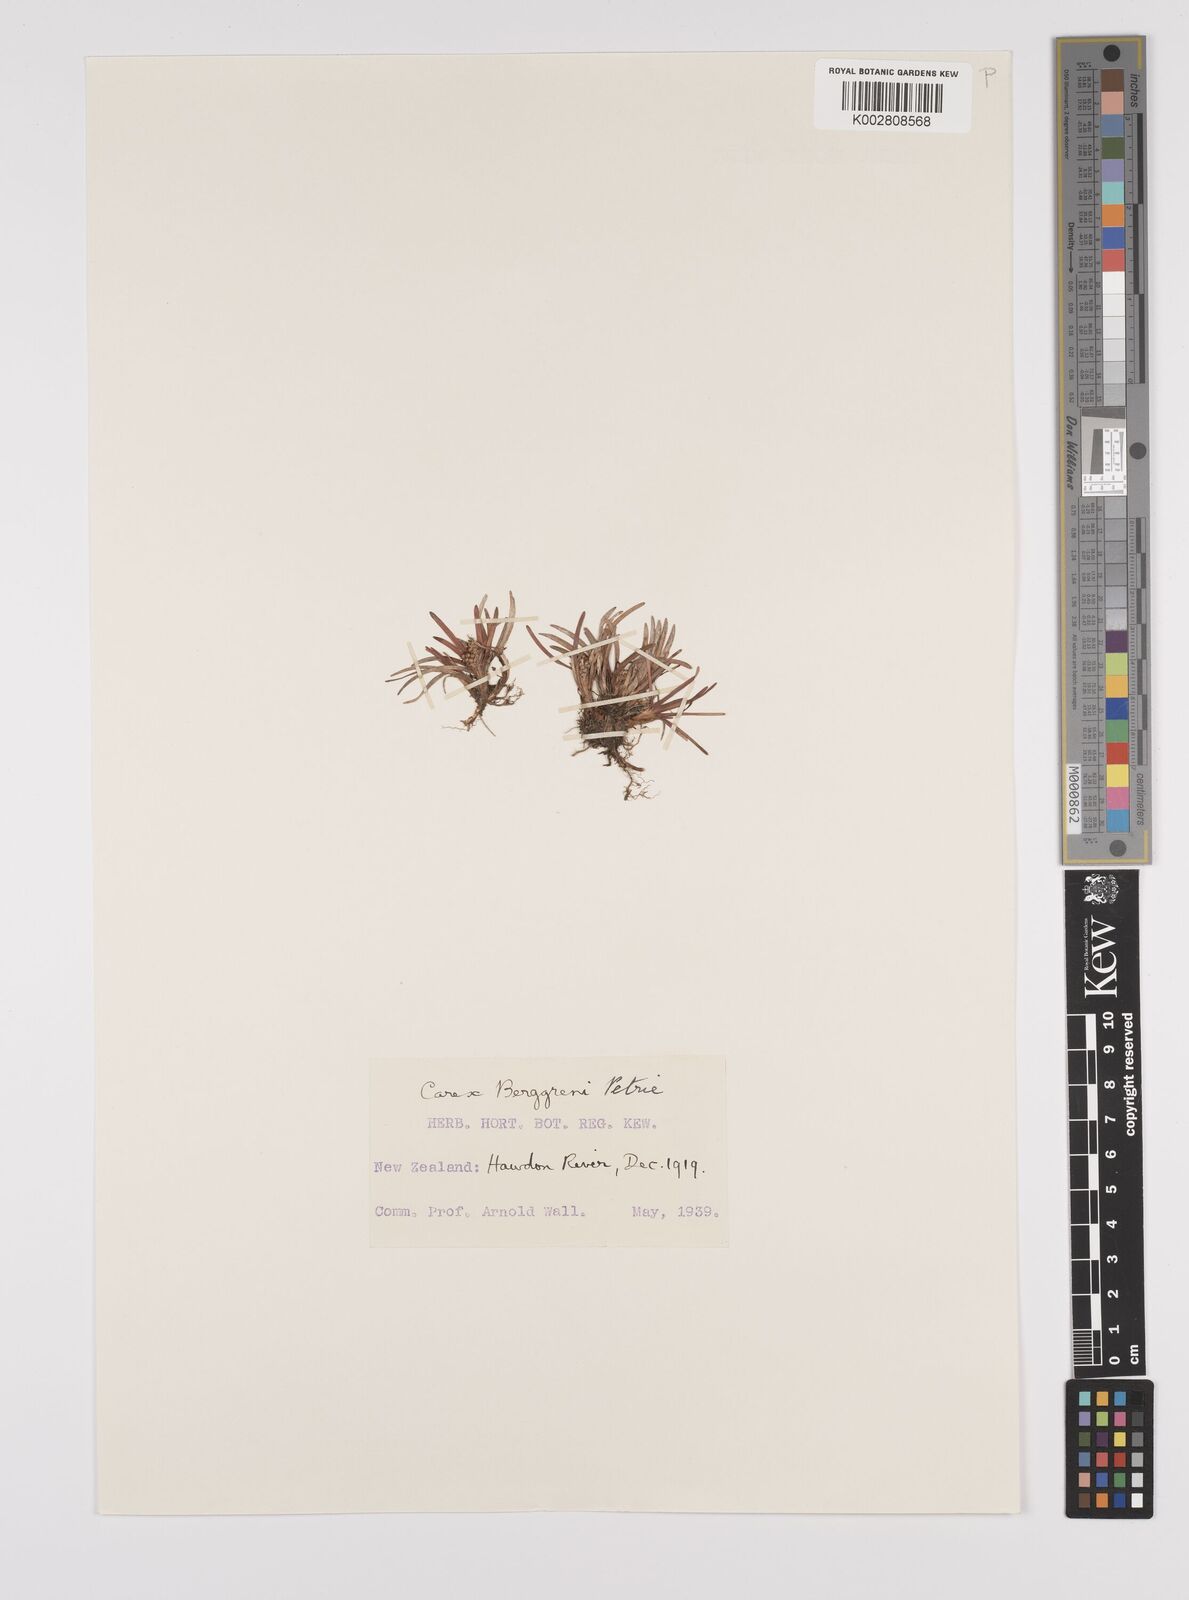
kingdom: Plantae
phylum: Tracheophyta
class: Liliopsida
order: Poales
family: Cyperaceae
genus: Carex
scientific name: Carex talbotii
